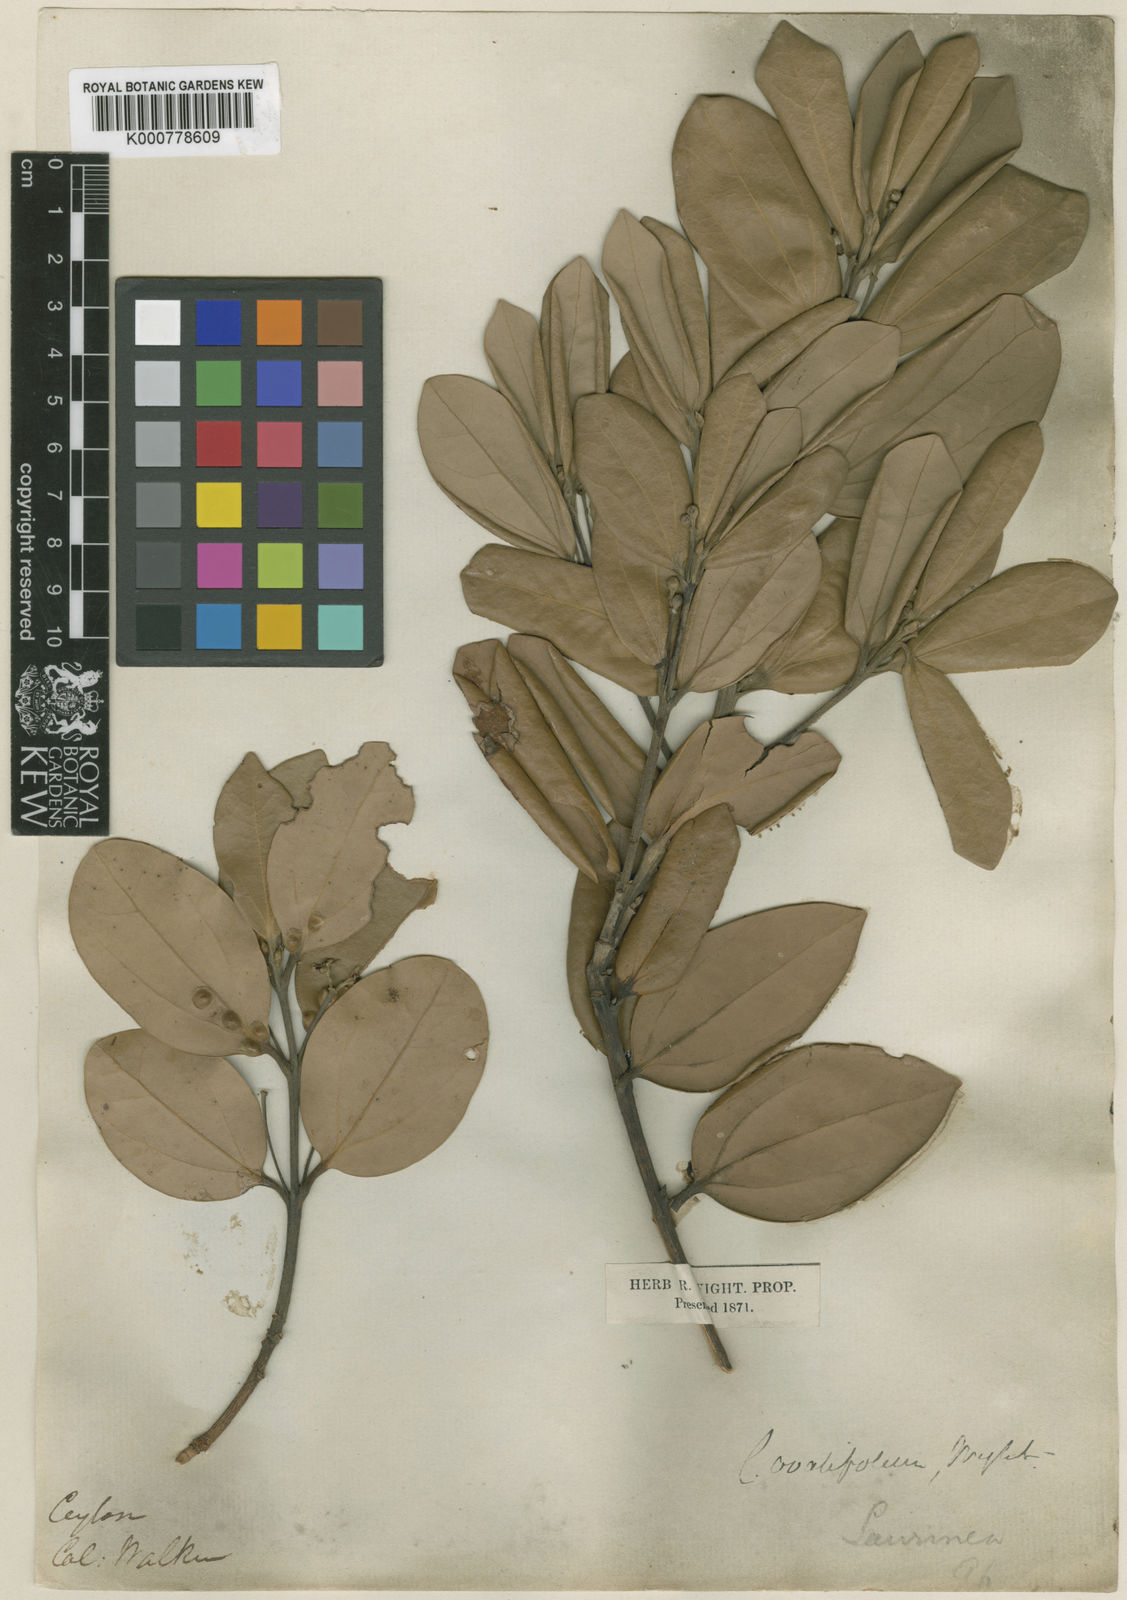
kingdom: Plantae
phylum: Tracheophyta
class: Magnoliopsida
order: Laurales
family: Lauraceae
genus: Cinnamomum
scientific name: Cinnamomum ovalifolium
